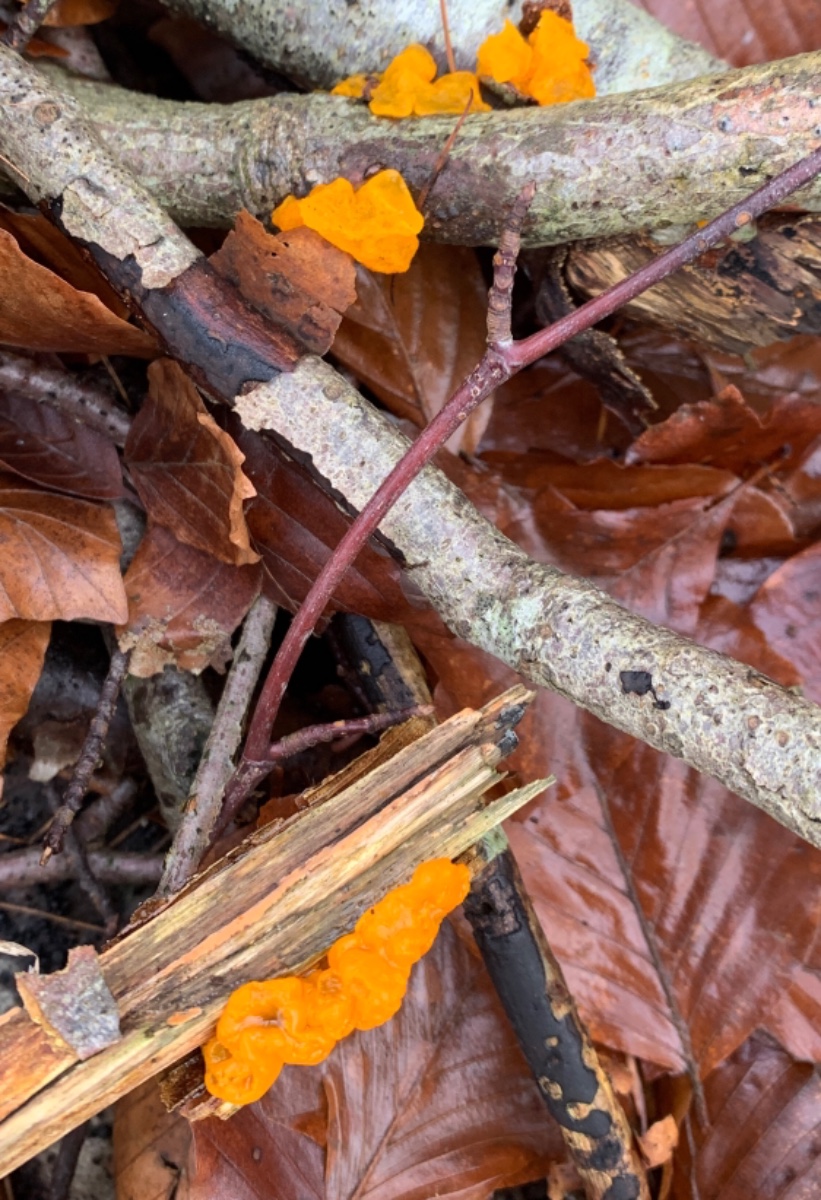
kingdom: Fungi
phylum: Basidiomycota
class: Tremellomycetes
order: Tremellales
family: Tremellaceae
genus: Tremella
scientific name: Tremella mesenterica
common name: gul bævresvamp
